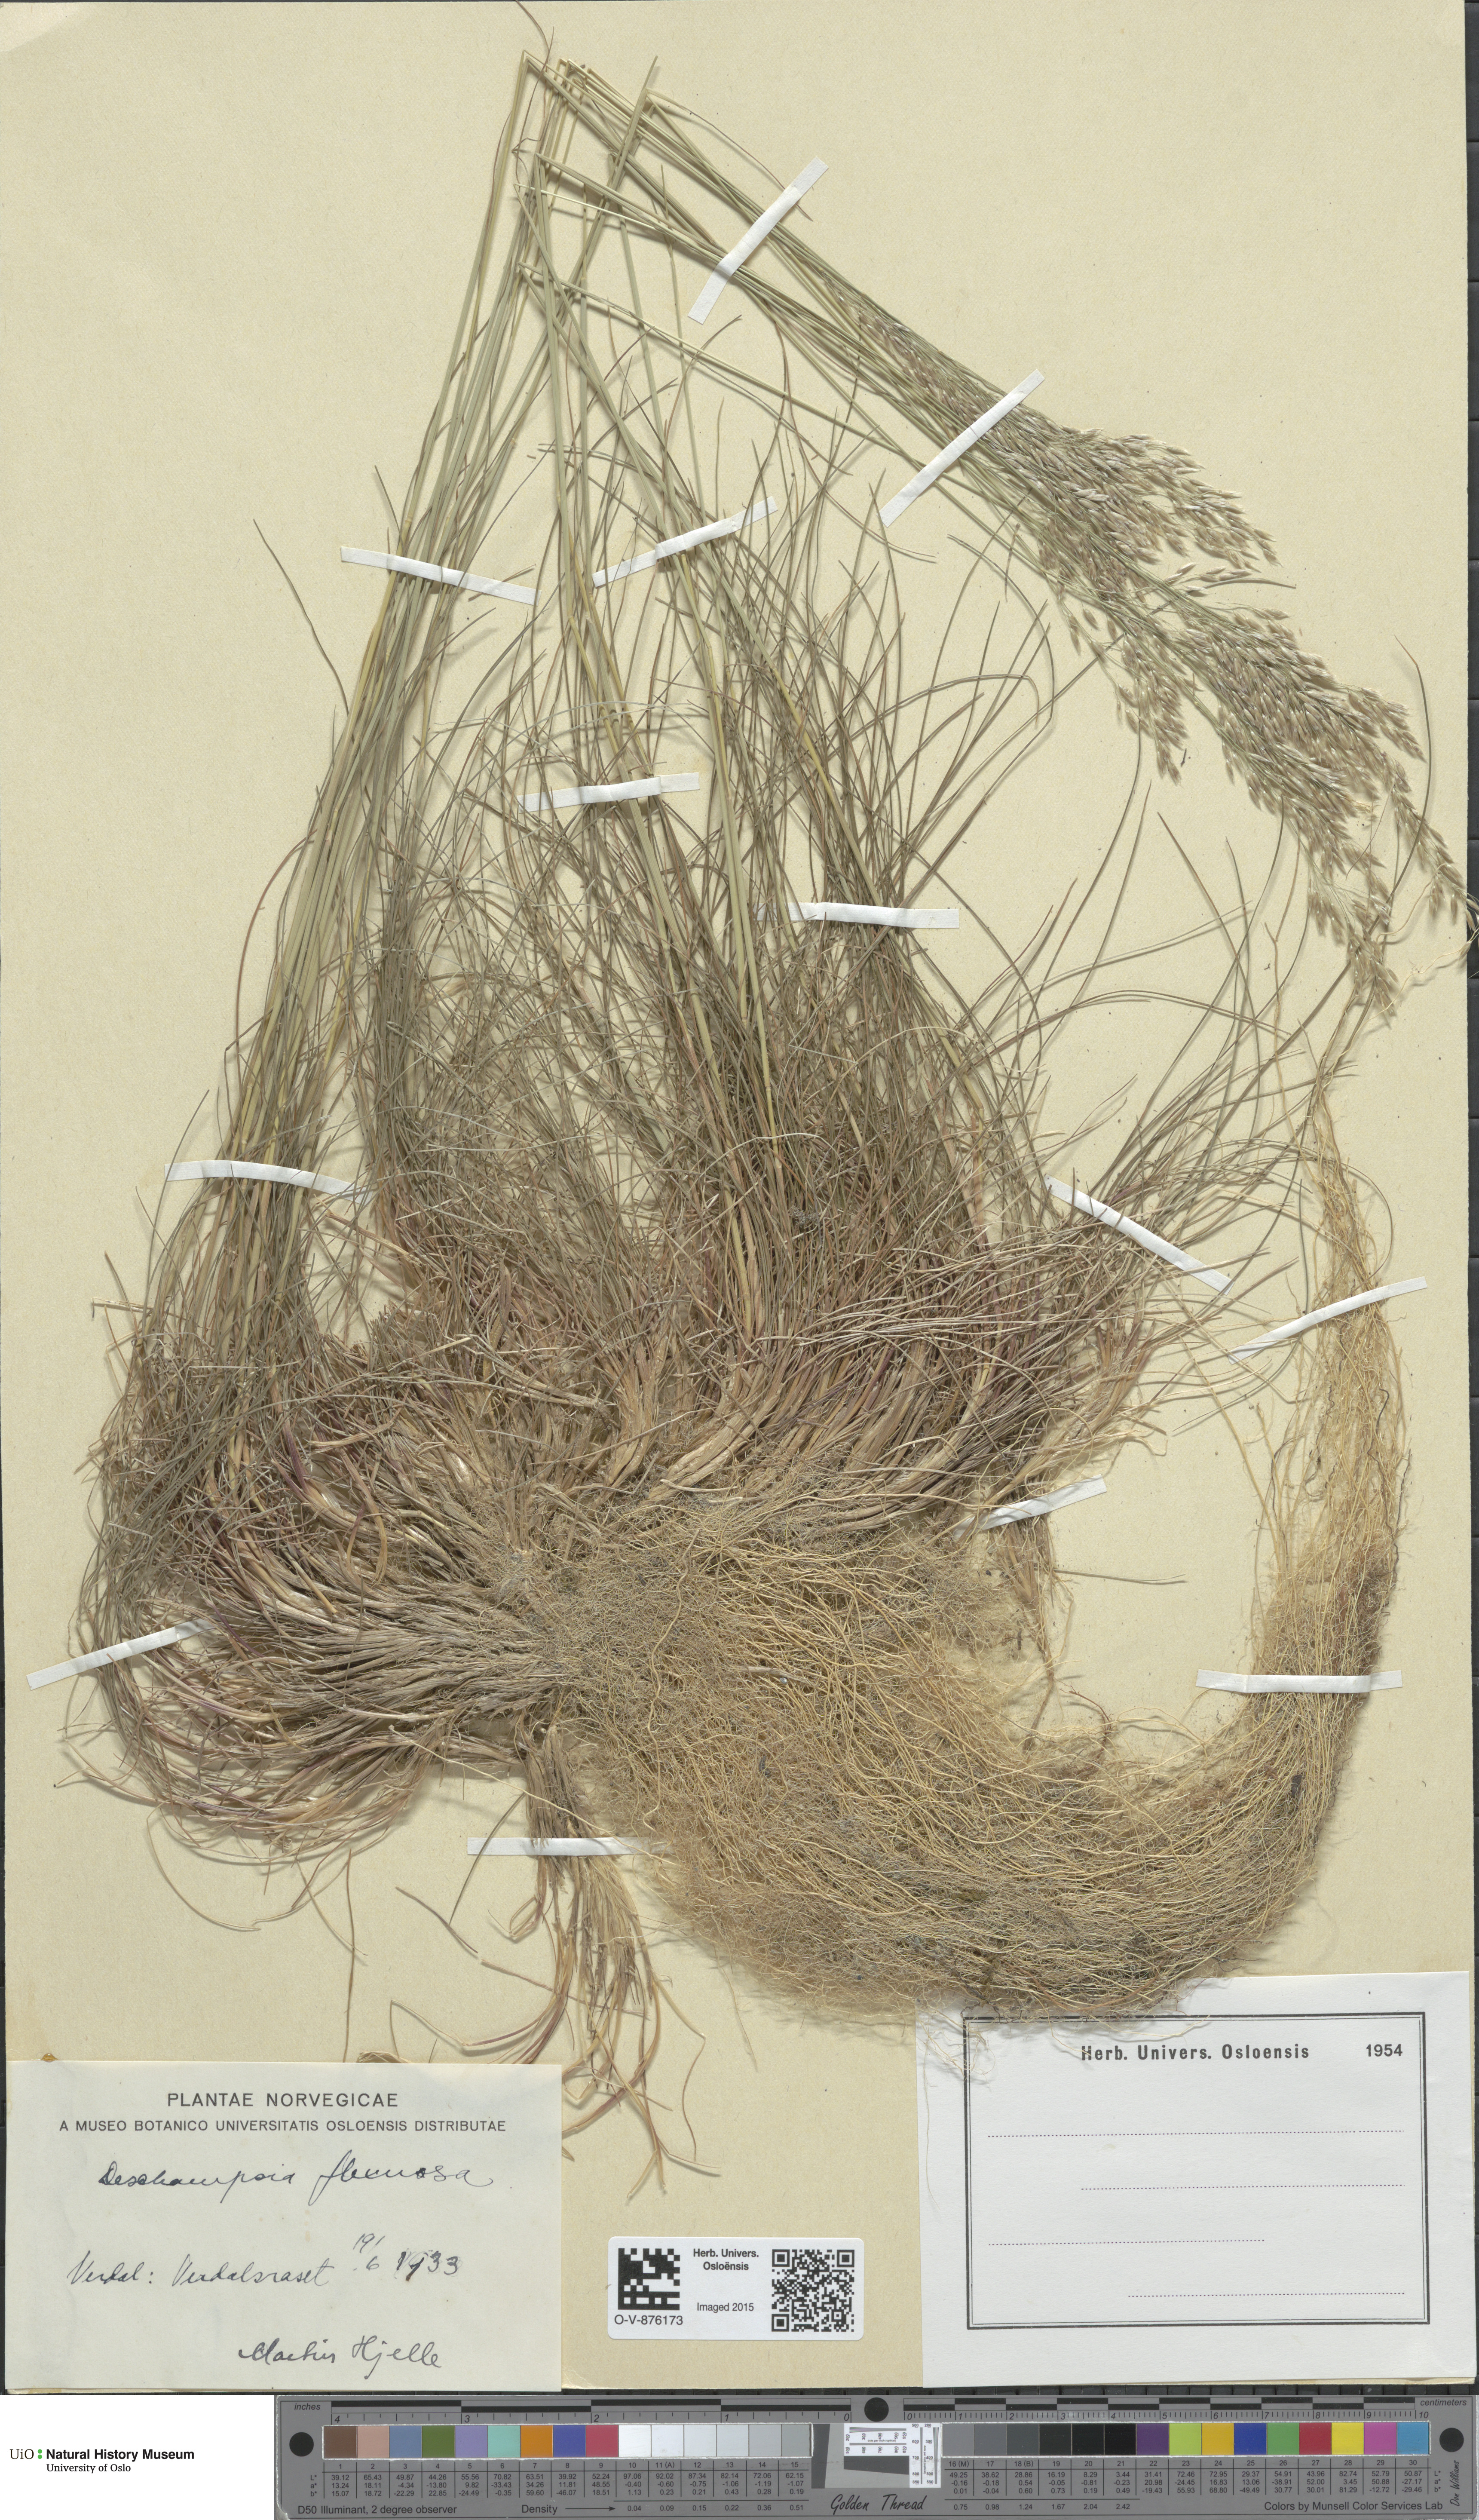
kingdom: Plantae
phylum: Tracheophyta
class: Liliopsida
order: Poales
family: Poaceae
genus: Avenella
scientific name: Avenella flexuosa
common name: Wavy hairgrass
